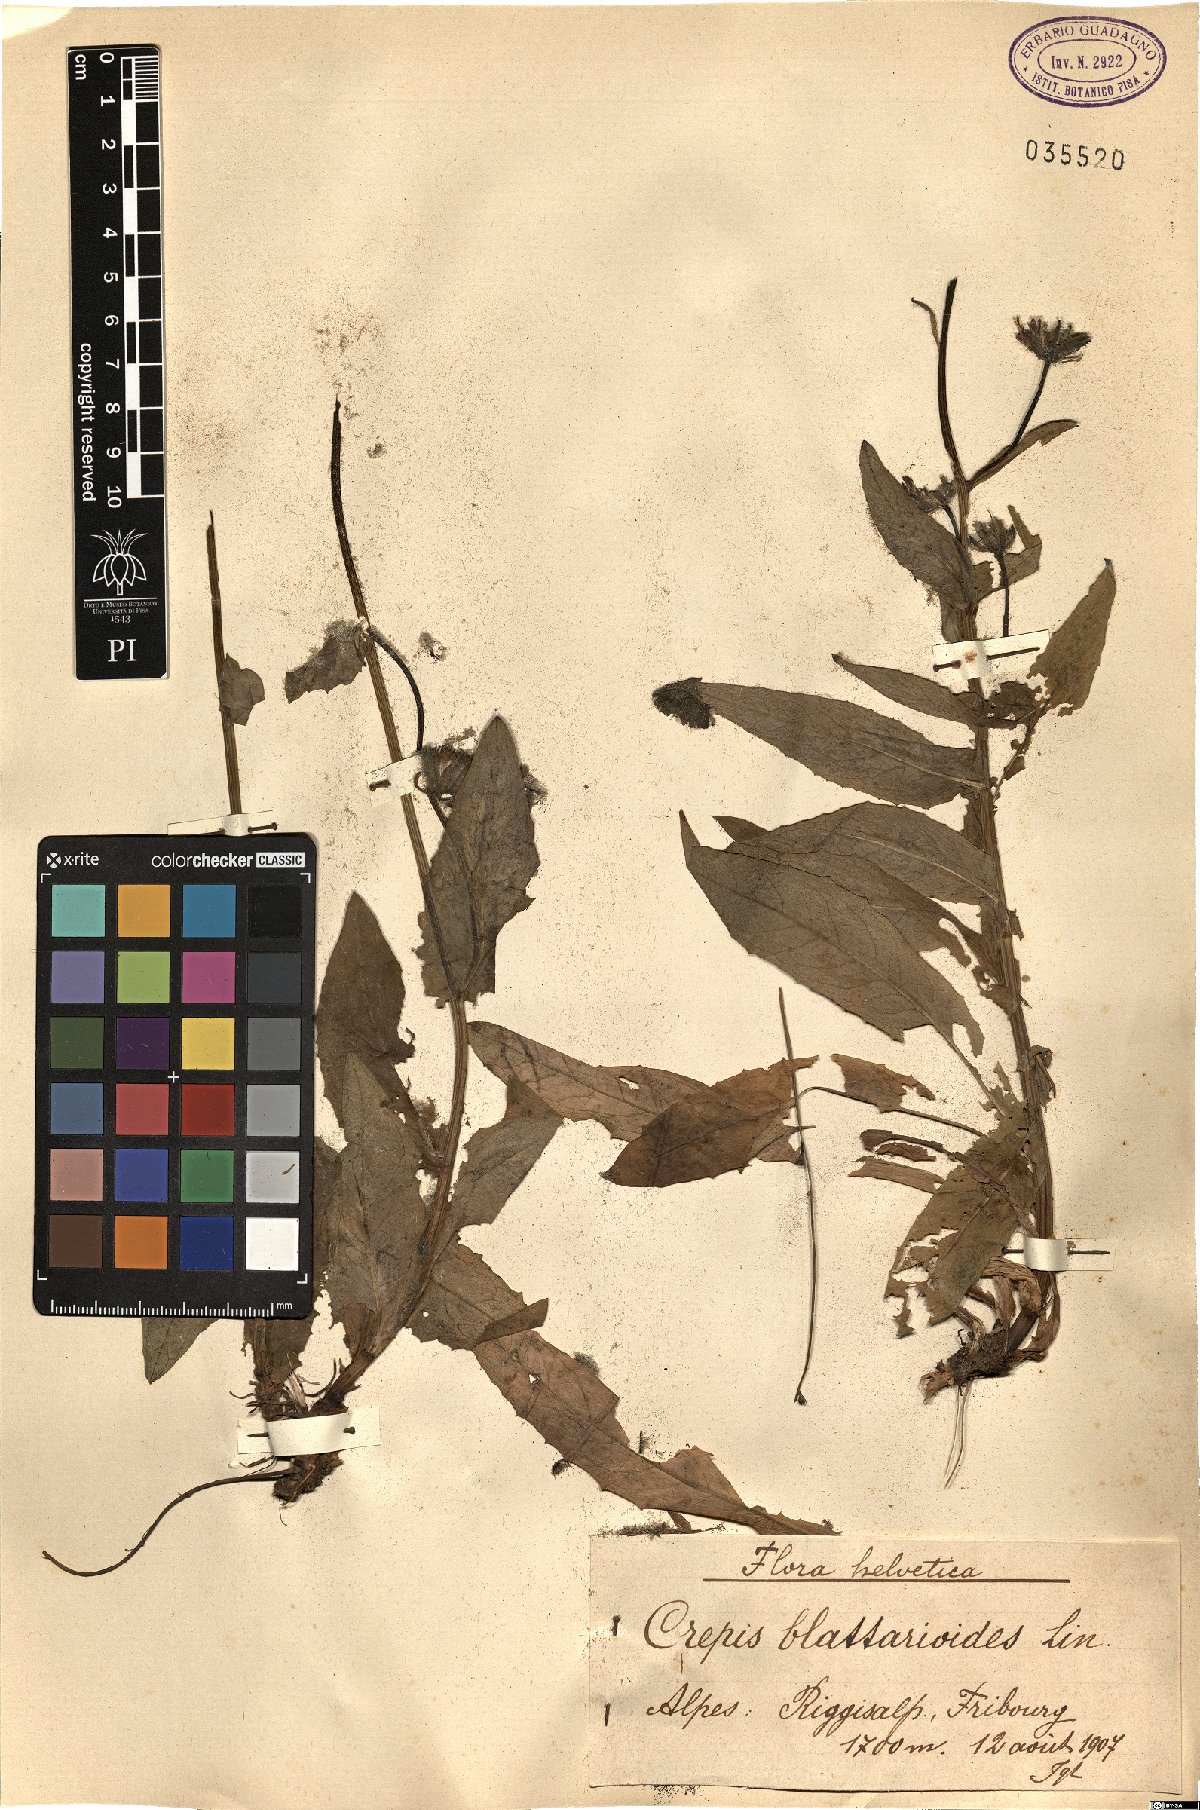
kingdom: Plantae
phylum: Tracheophyta
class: Magnoliopsida
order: Asterales
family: Asteraceae
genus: Crepis
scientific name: Crepis blattarioides
